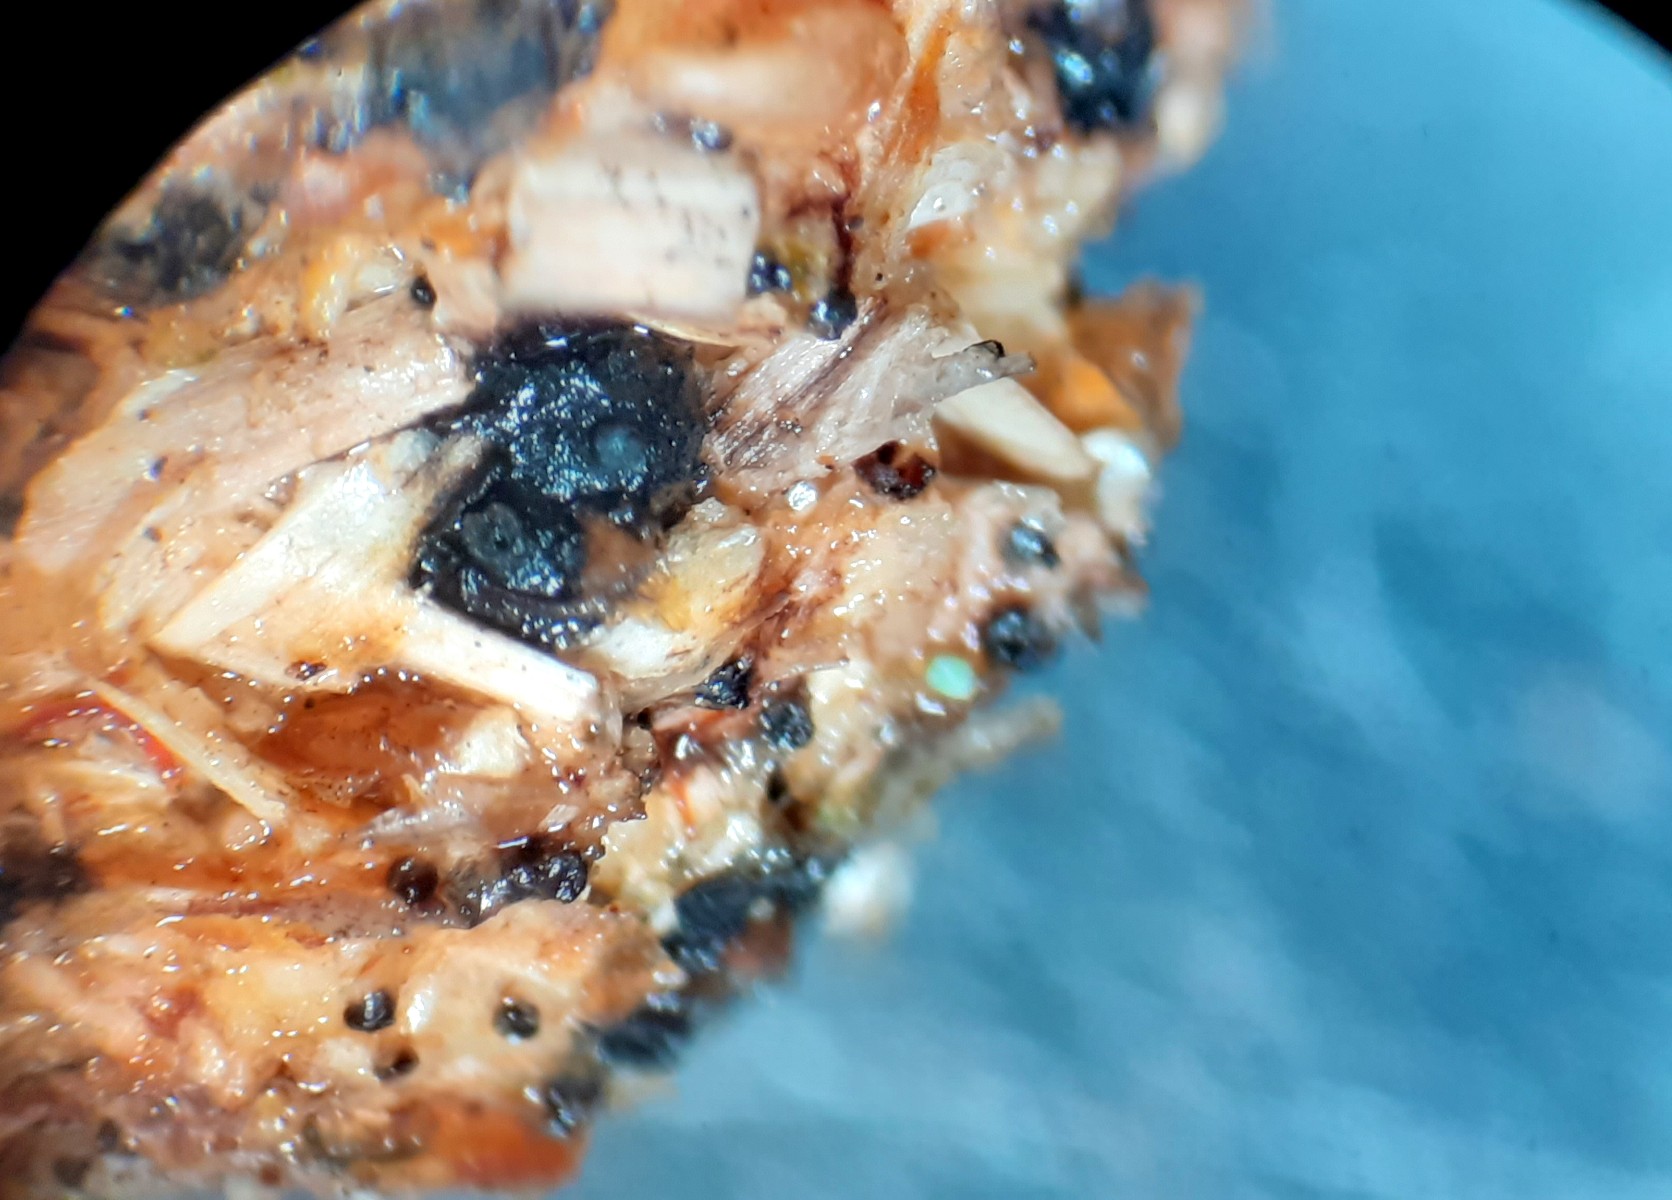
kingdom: Fungi
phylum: Ascomycota
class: Sordariomycetes
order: Xylariales
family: Xylariaceae
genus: Hypocopra
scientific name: Hypocopra brefeldii
